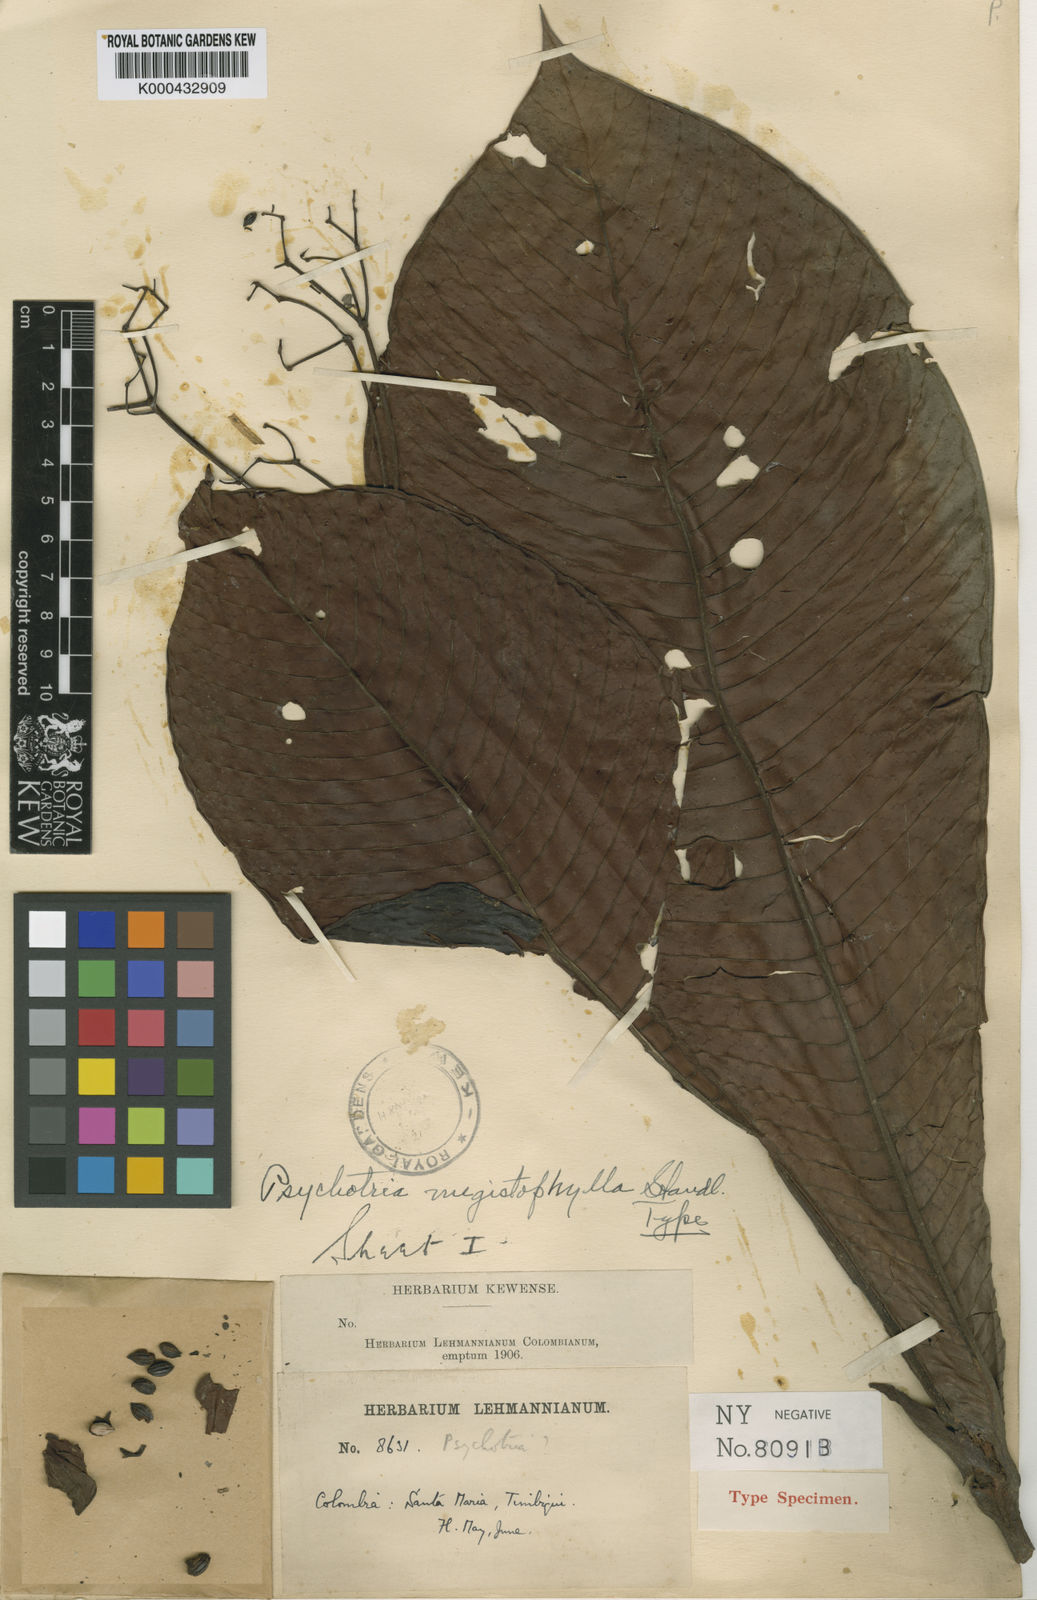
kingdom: Plantae
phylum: Tracheophyta
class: Magnoliopsida
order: Gentianales
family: Rubiaceae
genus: Psychotria
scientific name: Psychotria megistophylla
